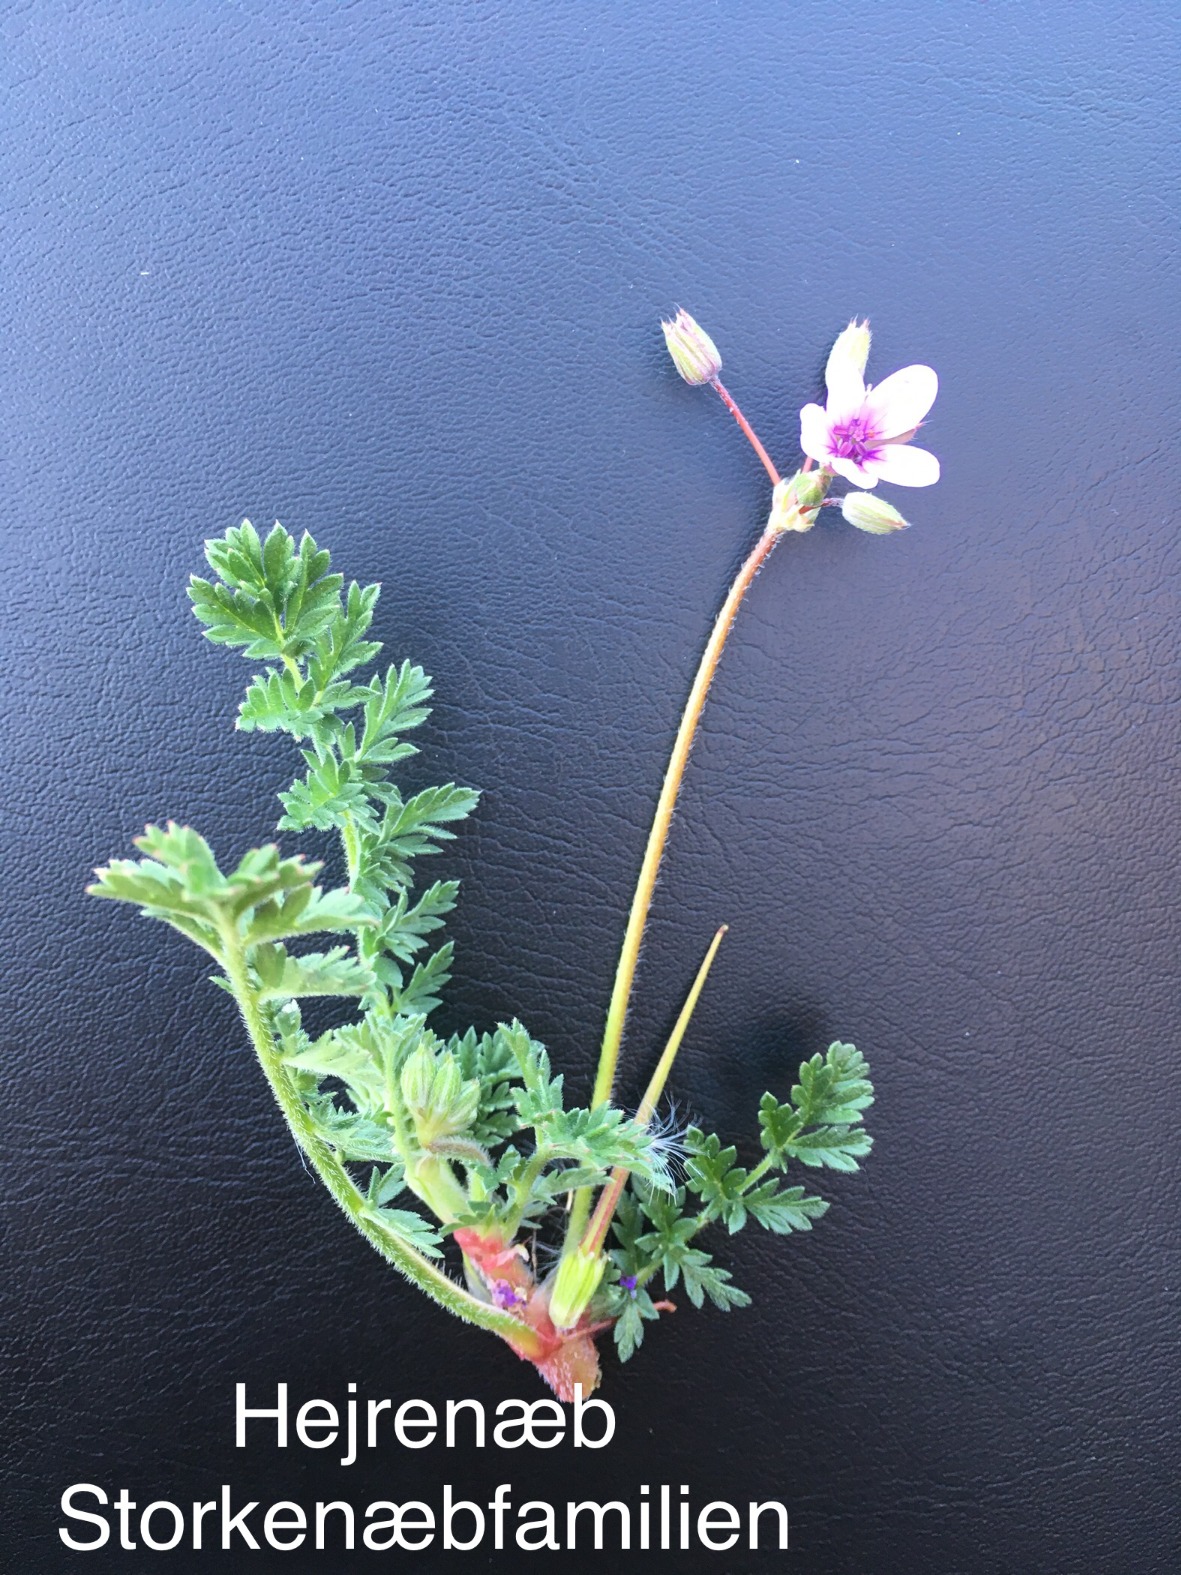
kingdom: Plantae
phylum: Tracheophyta
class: Magnoliopsida
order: Geraniales
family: Geraniaceae
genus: Erodium
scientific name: Erodium cicutarium
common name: Hejrenæb
